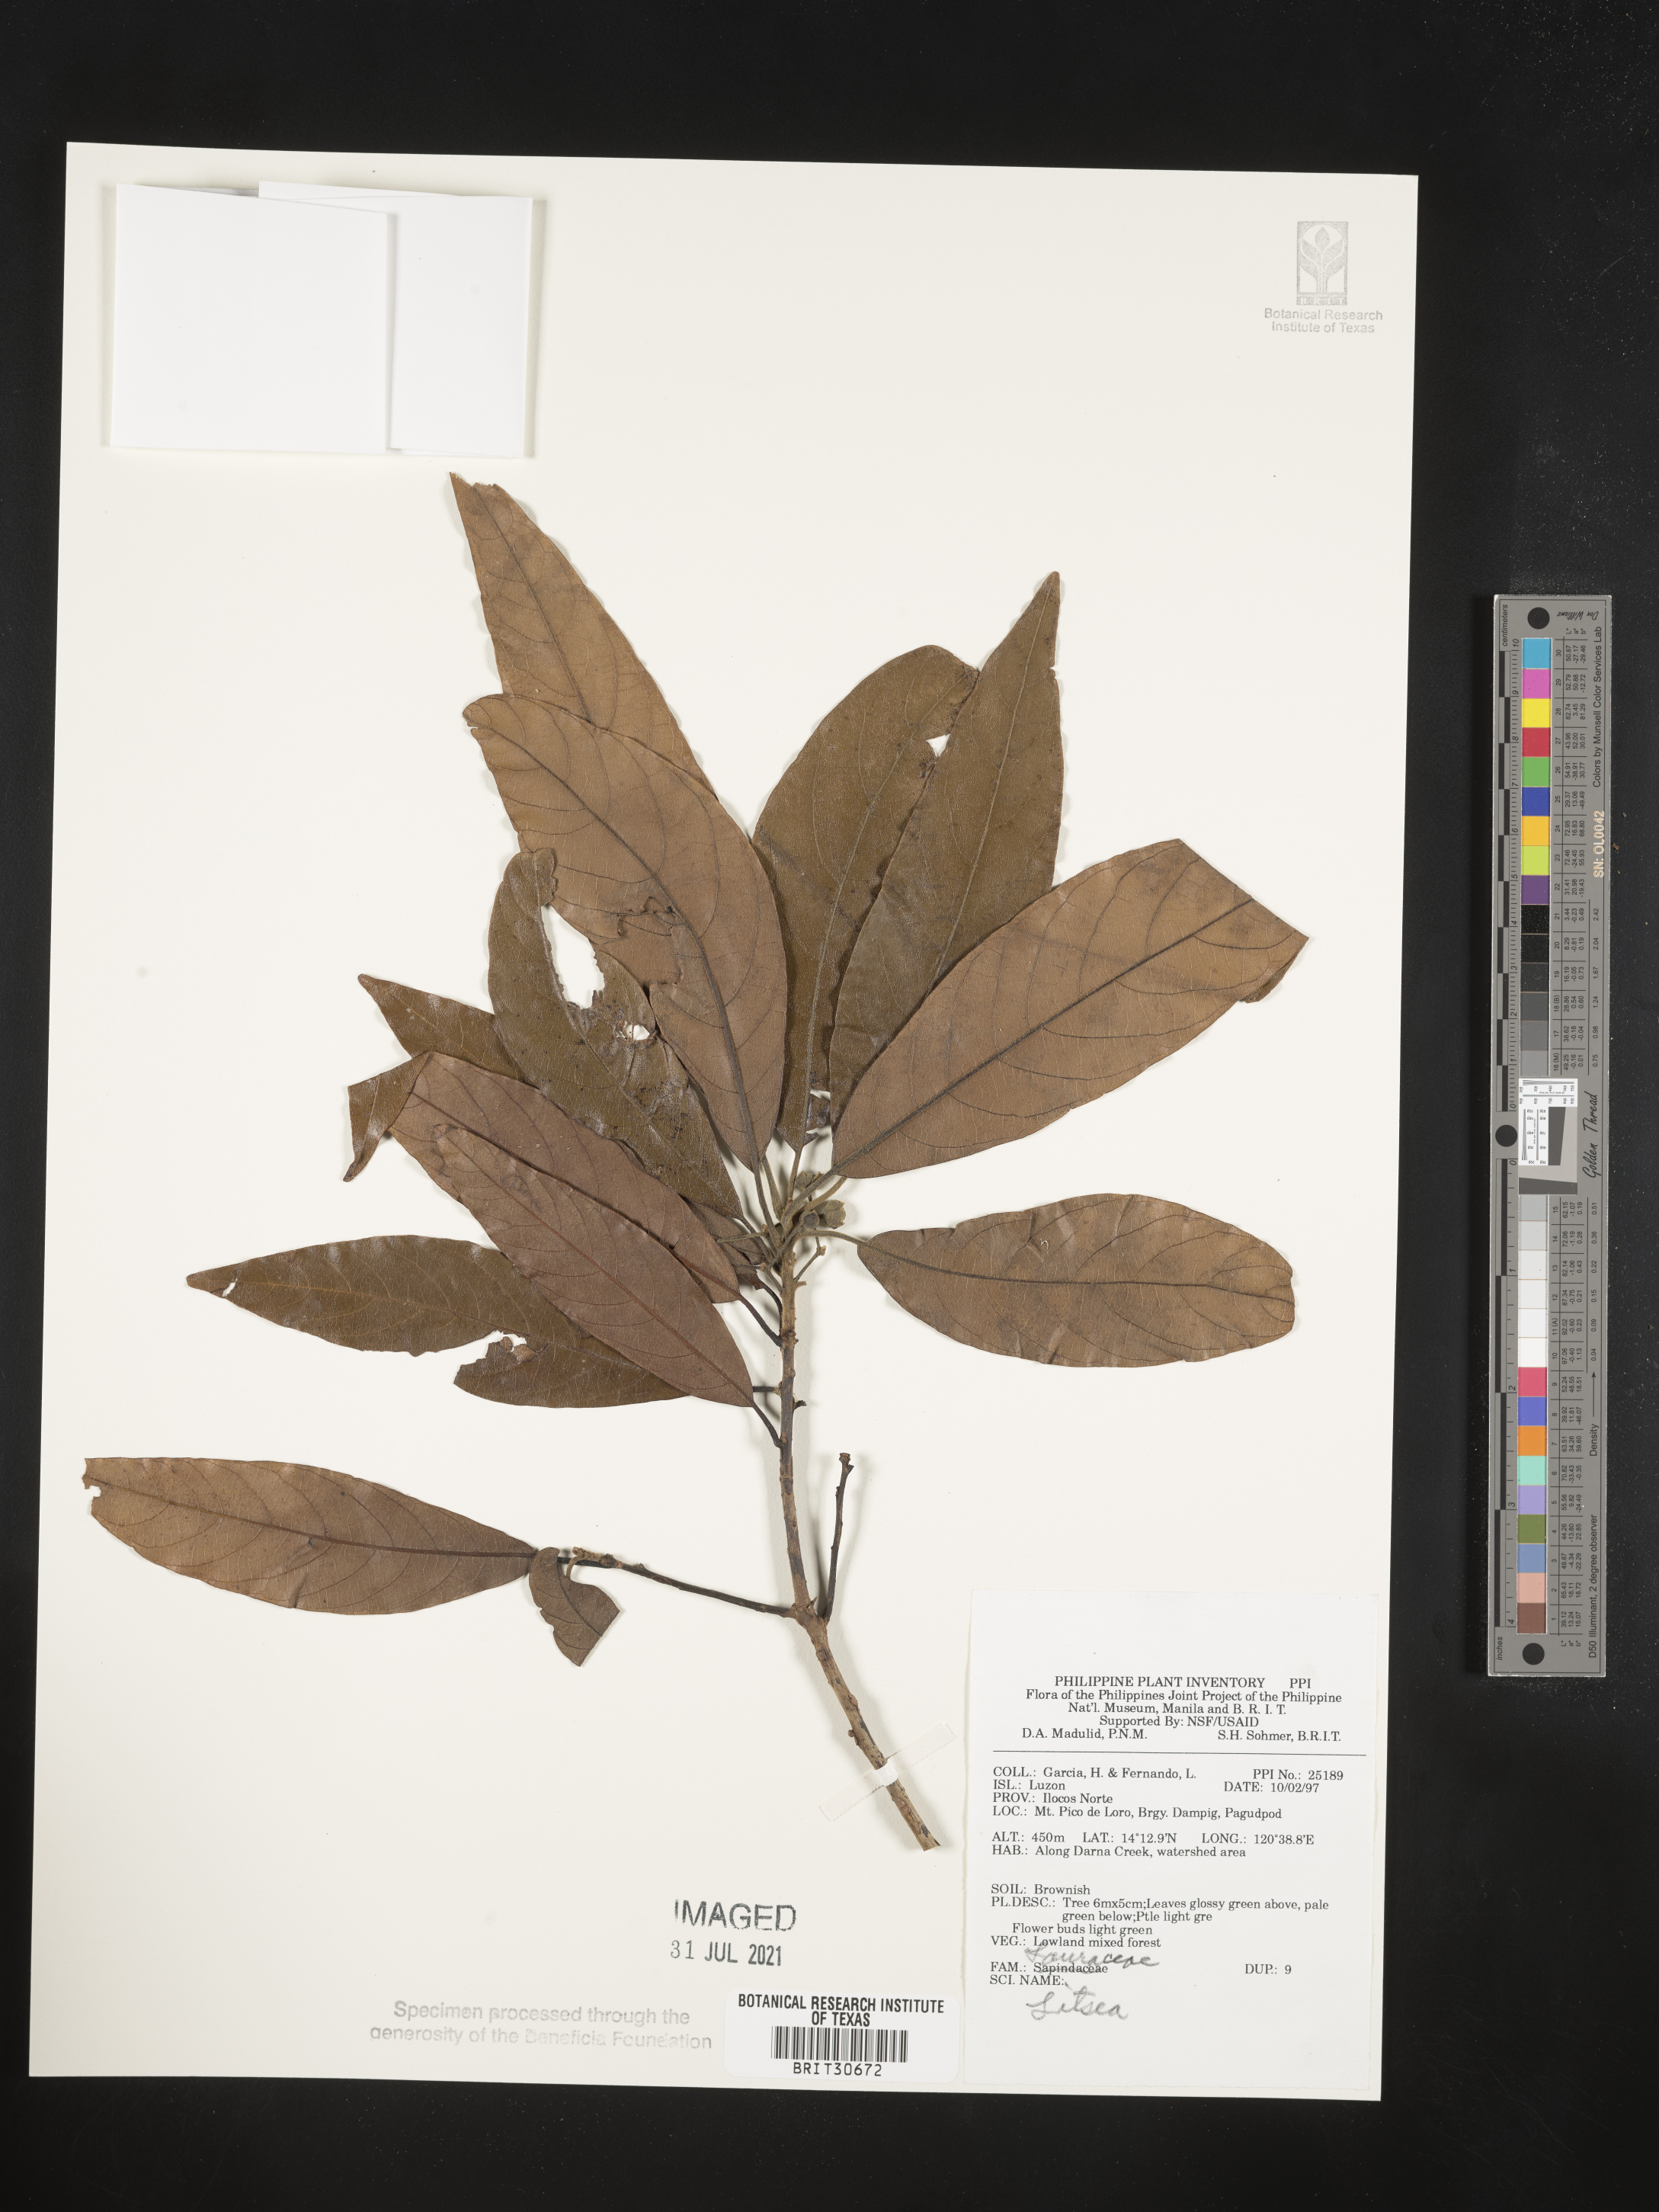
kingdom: Plantae
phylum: Tracheophyta
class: Magnoliopsida
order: Laurales
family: Lauraceae
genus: Litsea
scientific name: Litsea
